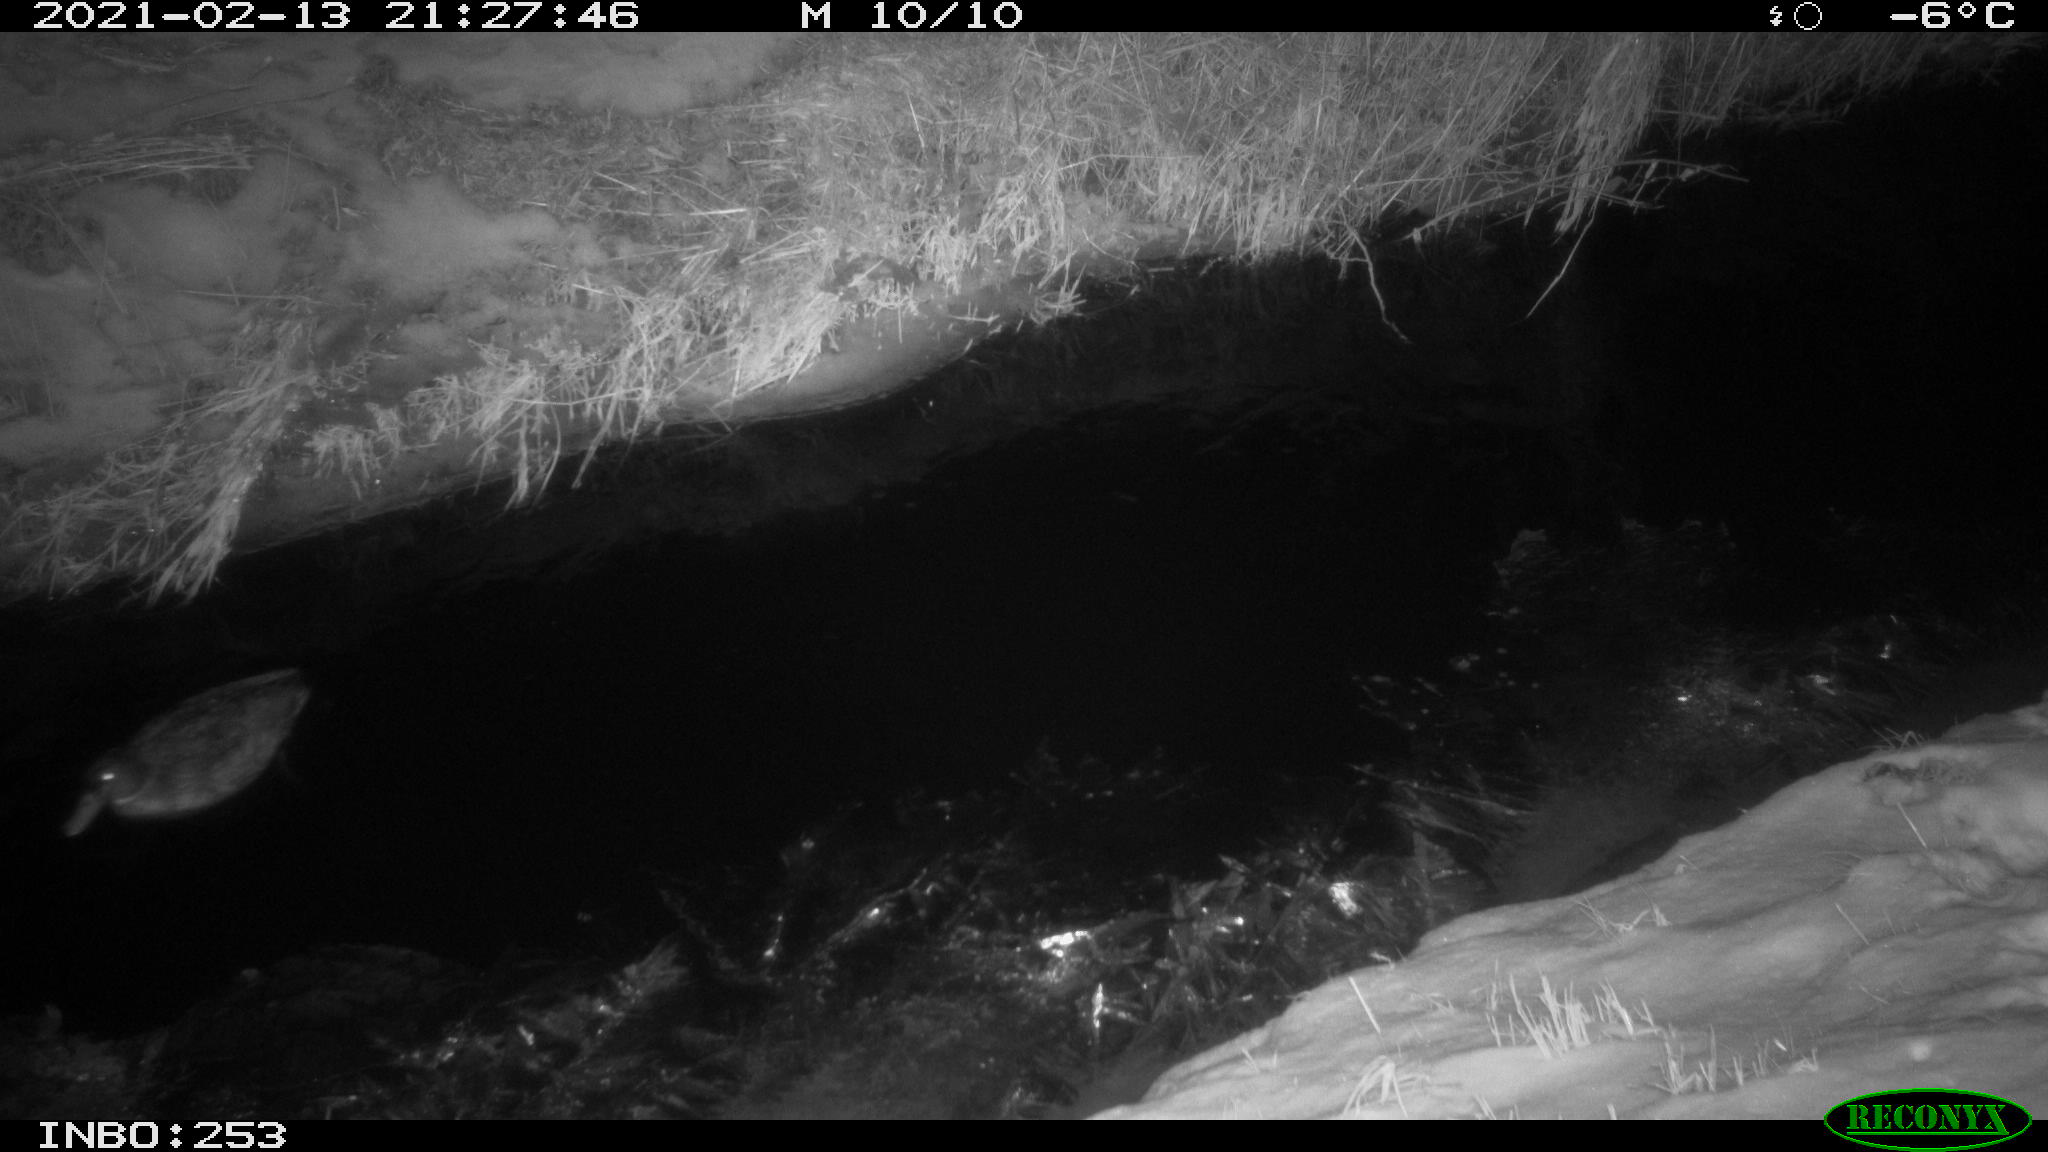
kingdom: Animalia
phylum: Chordata
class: Aves
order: Anseriformes
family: Anatidae
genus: Anas
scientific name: Anas platyrhynchos
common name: Mallard
